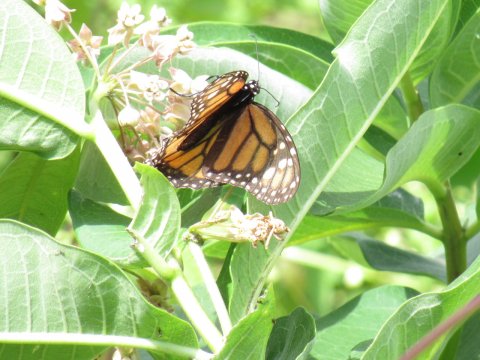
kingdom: Animalia
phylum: Arthropoda
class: Insecta
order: Lepidoptera
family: Nymphalidae
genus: Danaus
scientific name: Danaus plexippus
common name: Monarch
